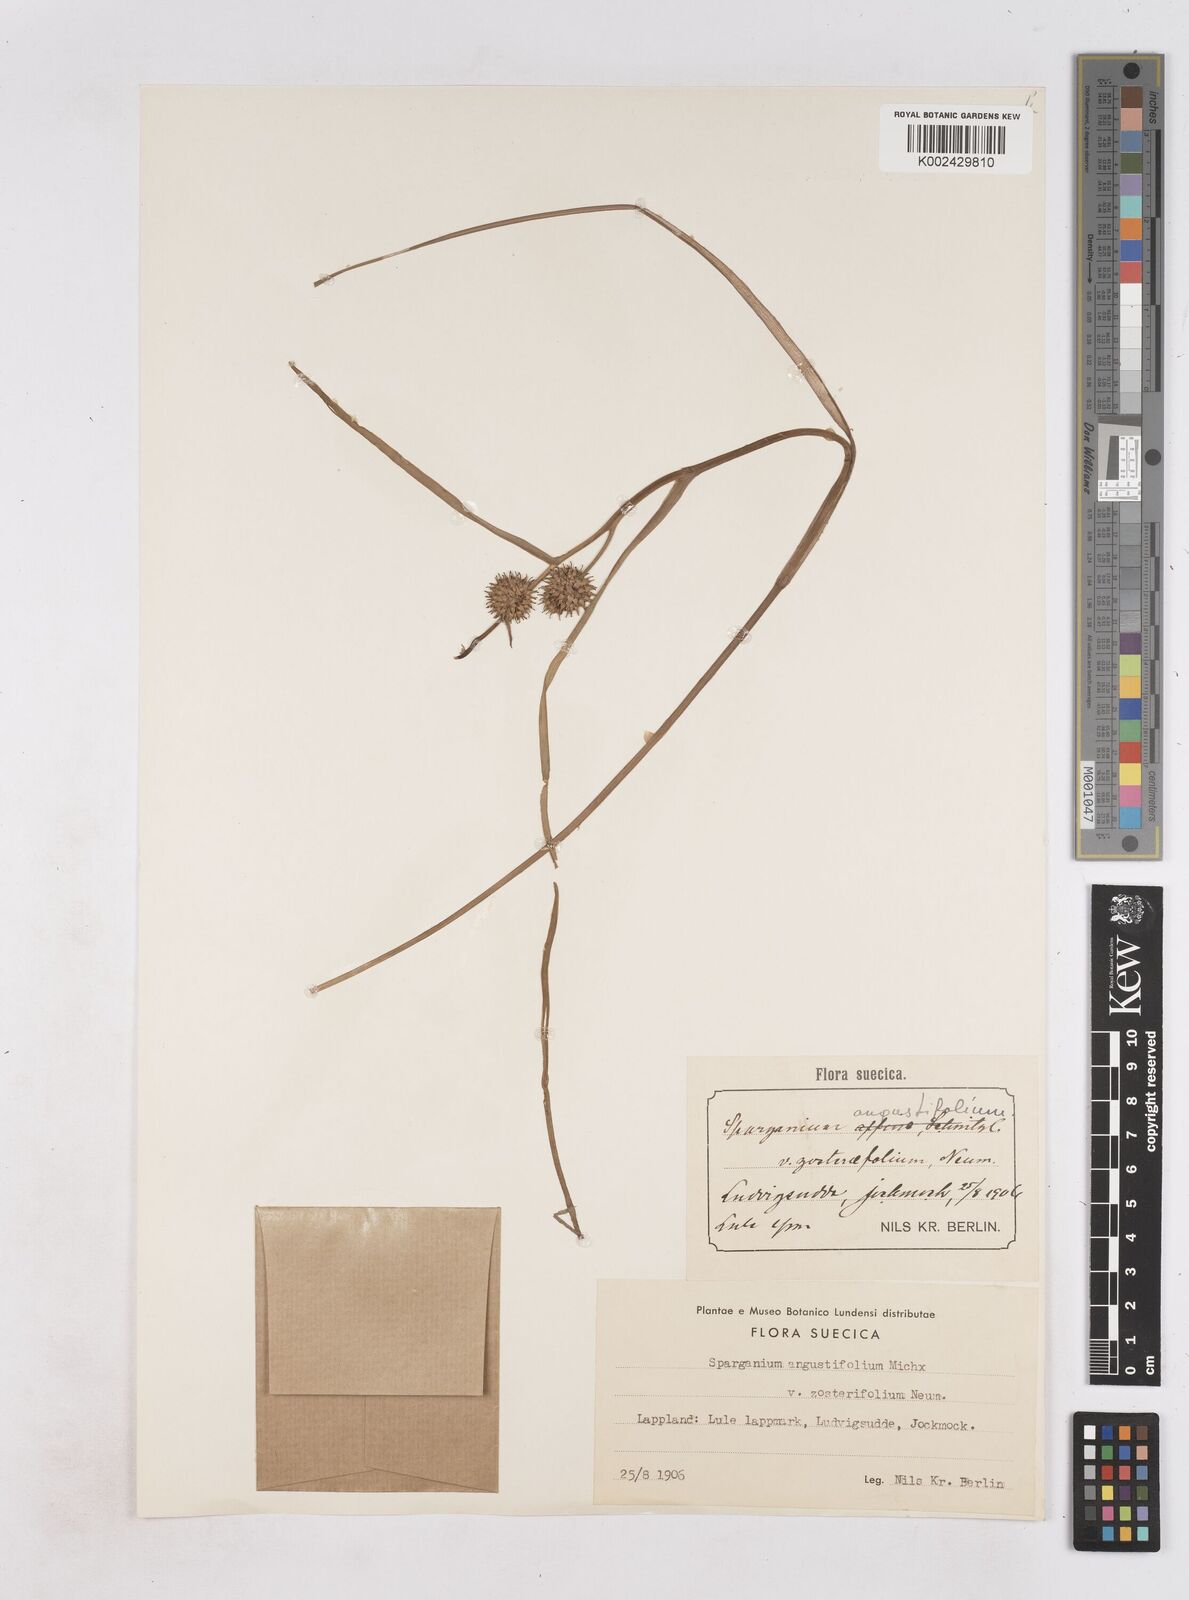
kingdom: Plantae
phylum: Tracheophyta
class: Liliopsida
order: Poales
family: Typhaceae
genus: Sparganium
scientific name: Sparganium angustifolium
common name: Floating bur-reed
